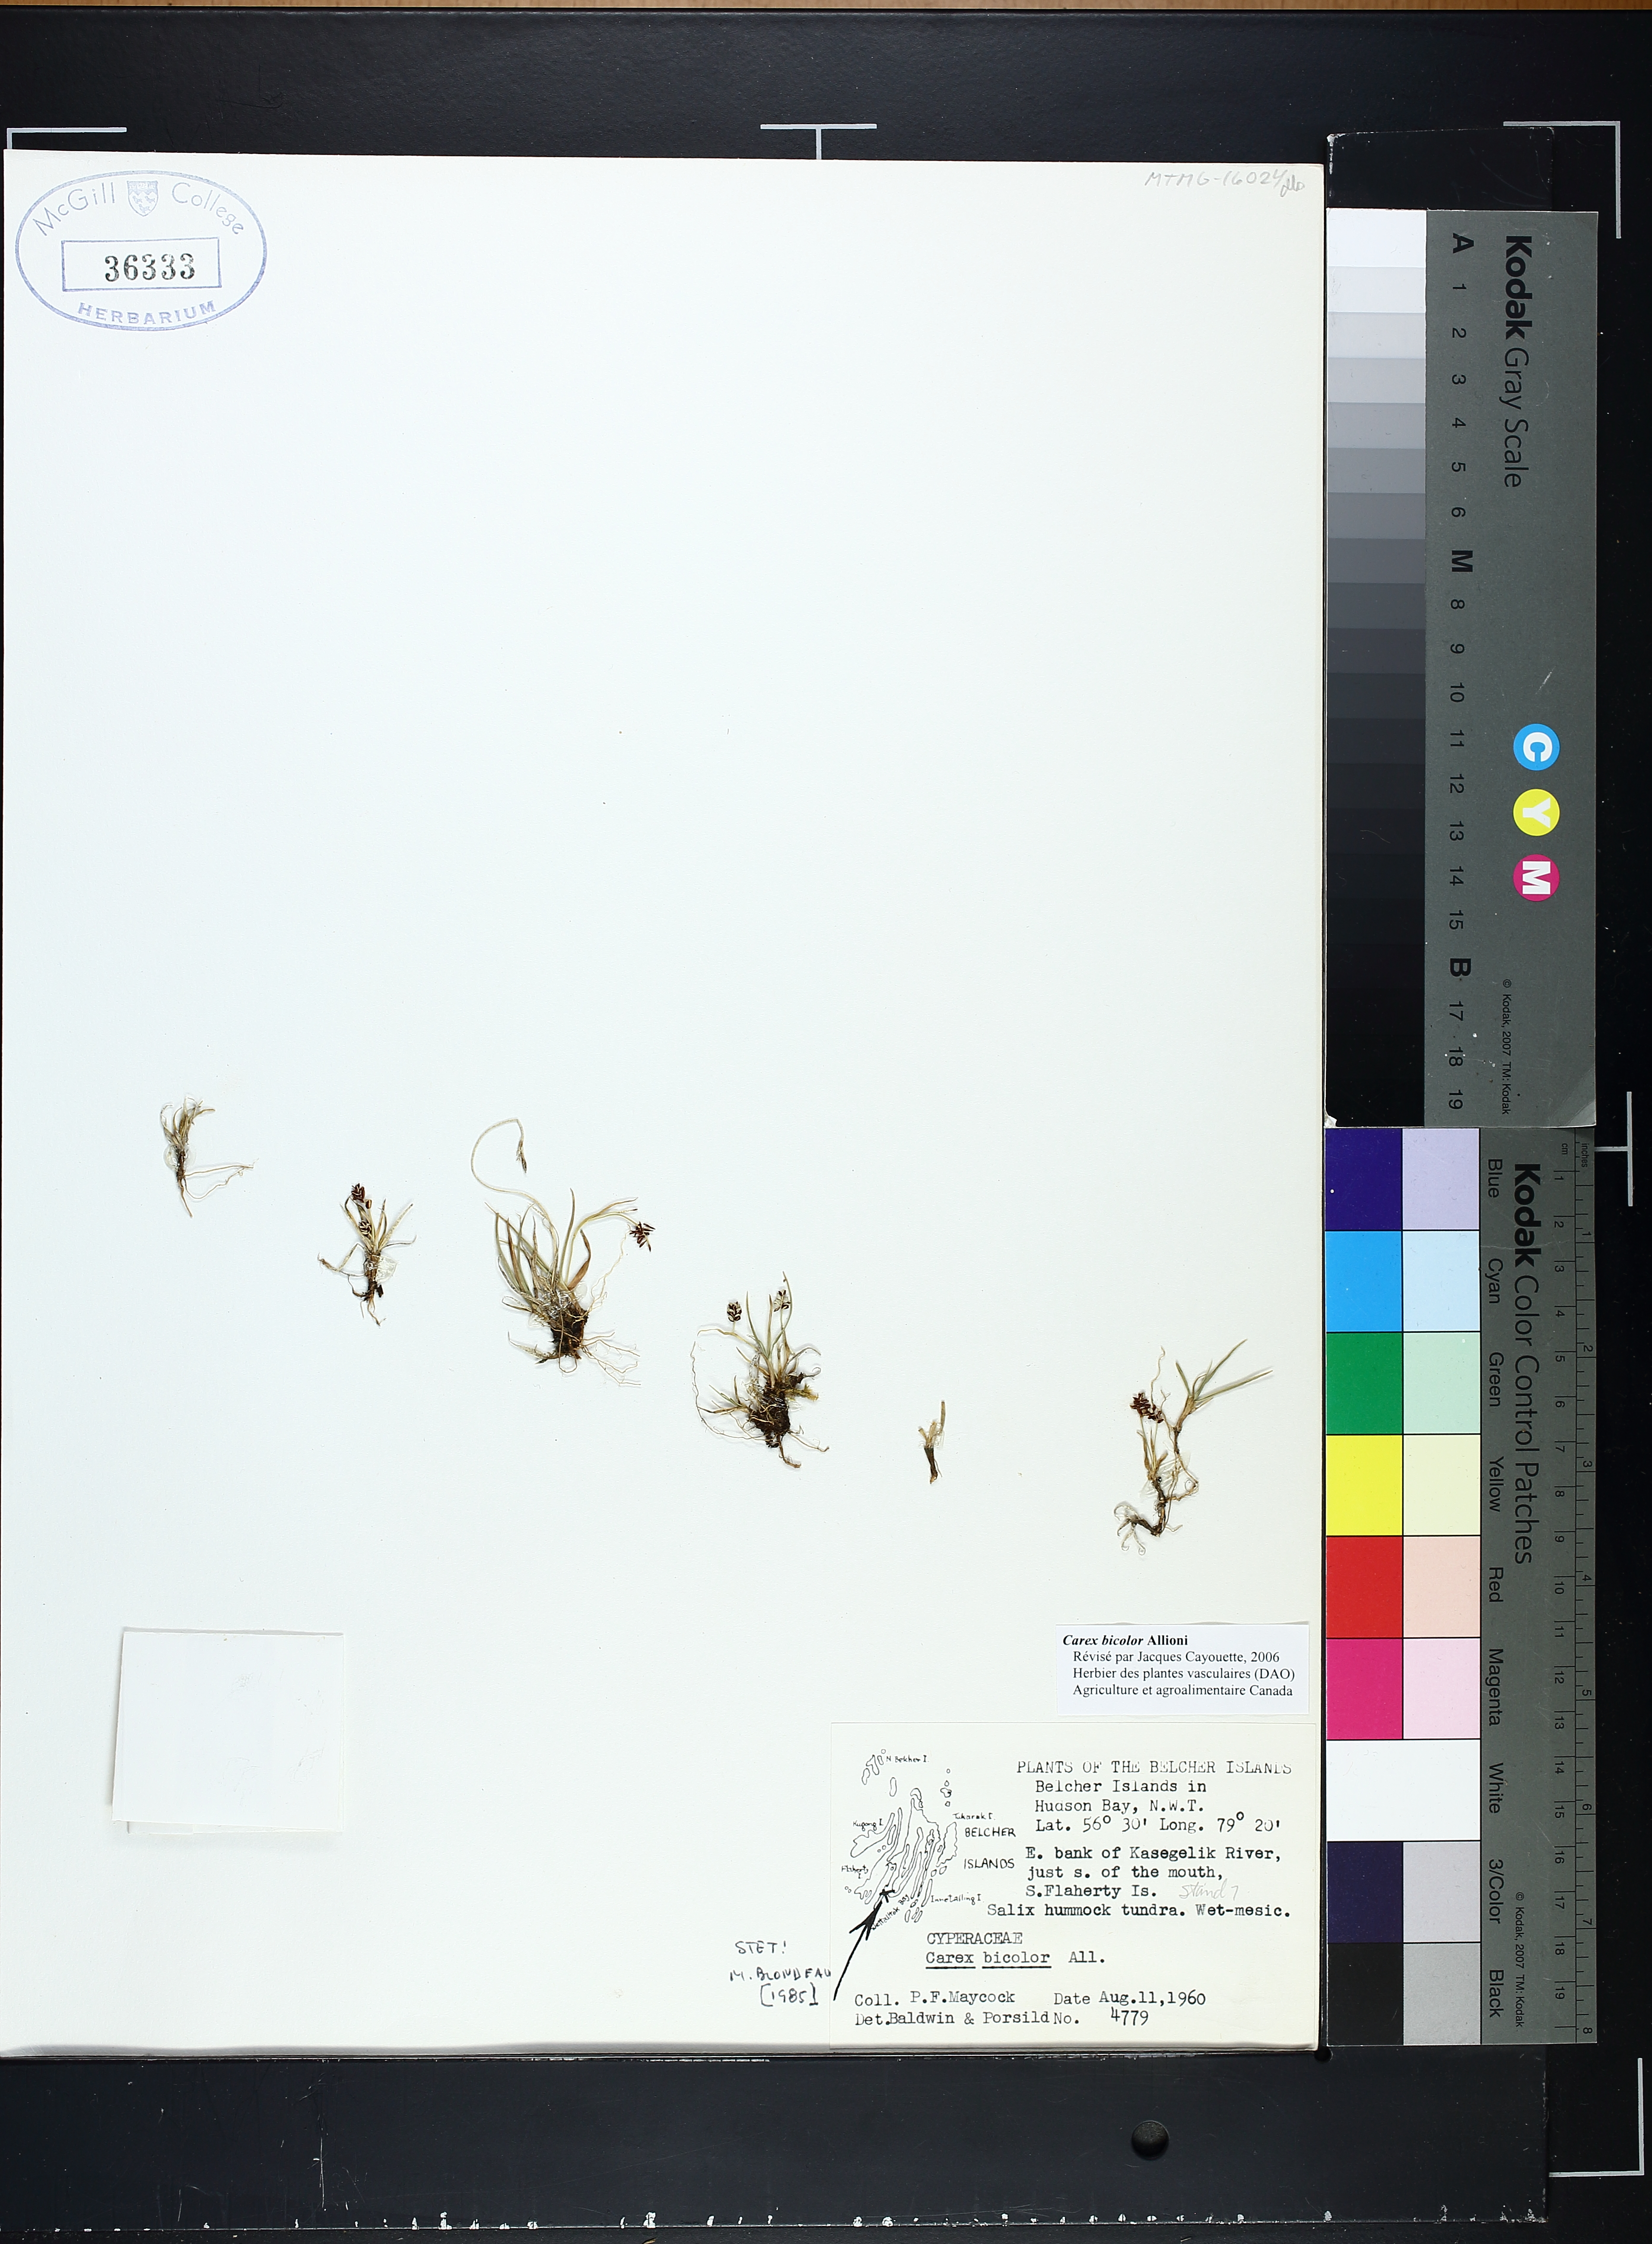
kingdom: Plantae
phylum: Tracheophyta
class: Liliopsida
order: Poales
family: Cyperaceae
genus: Carex
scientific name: Carex bicolor
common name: Bicoloured sedge
